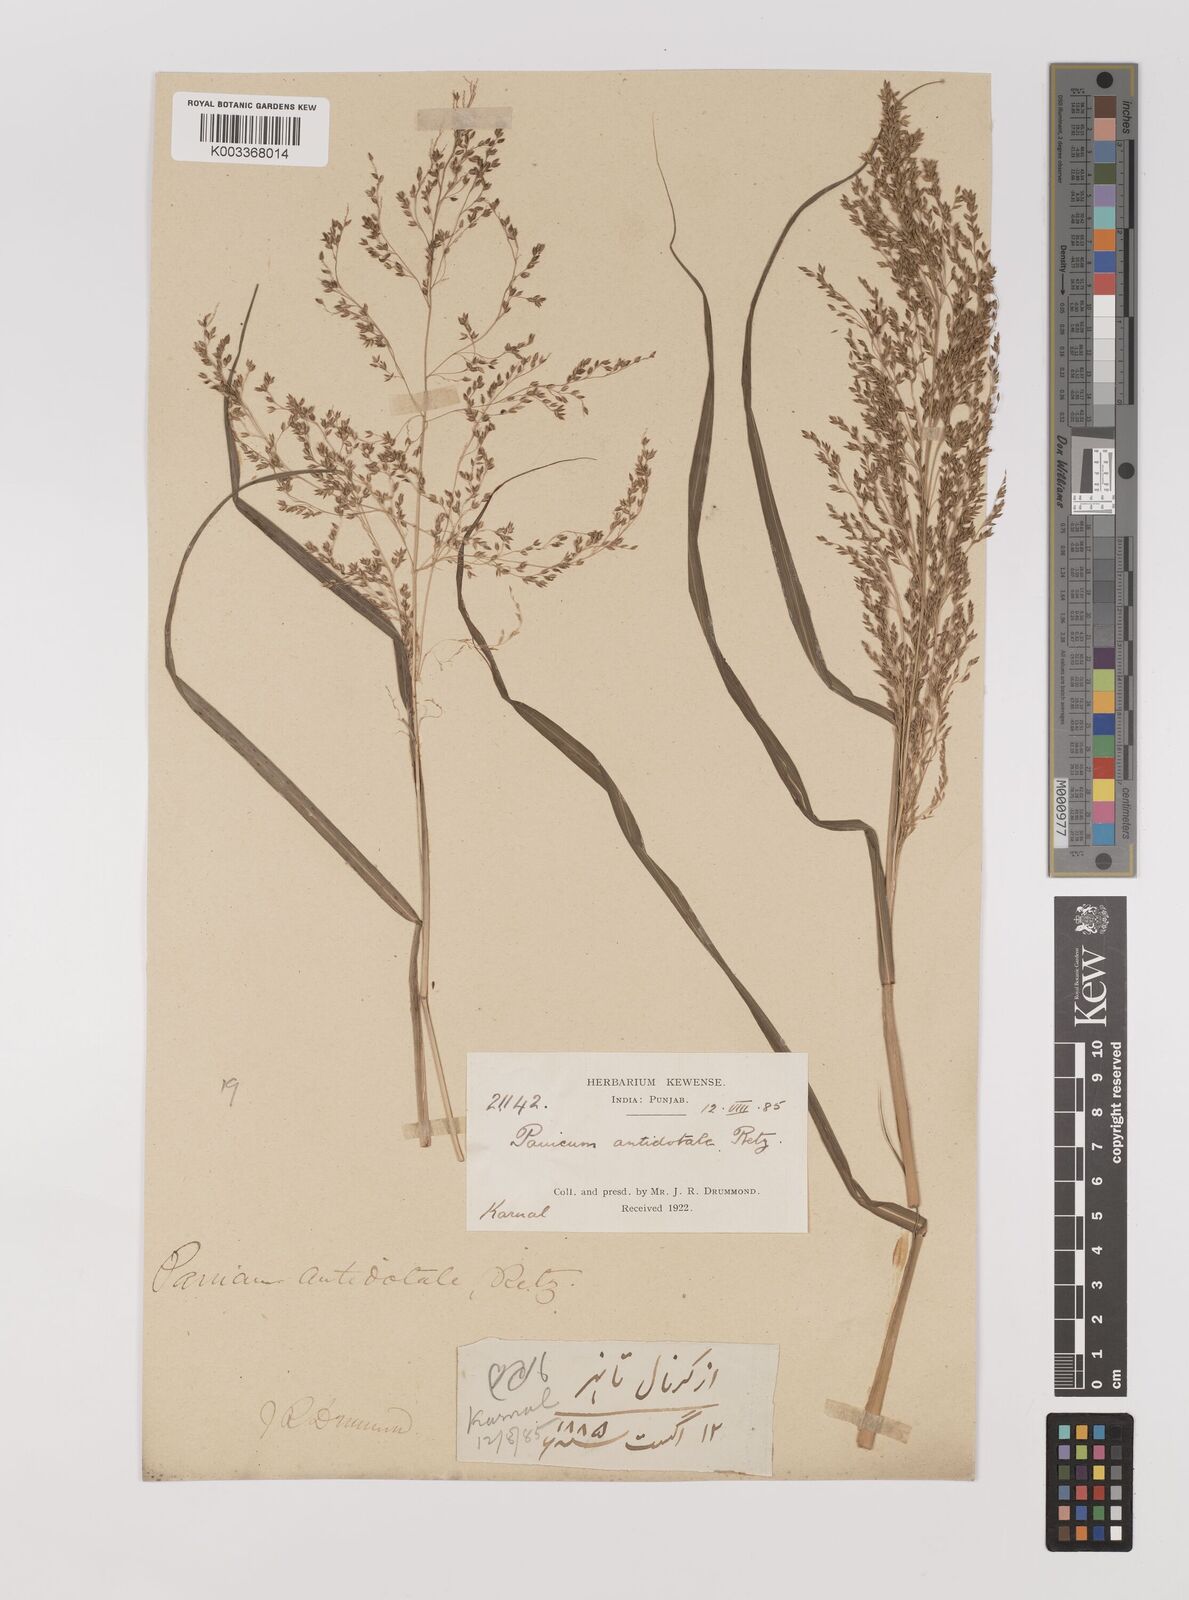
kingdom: Plantae
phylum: Tracheophyta
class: Liliopsida
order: Poales
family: Poaceae
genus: Panicum
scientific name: Panicum antidotale
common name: Blue panicum
